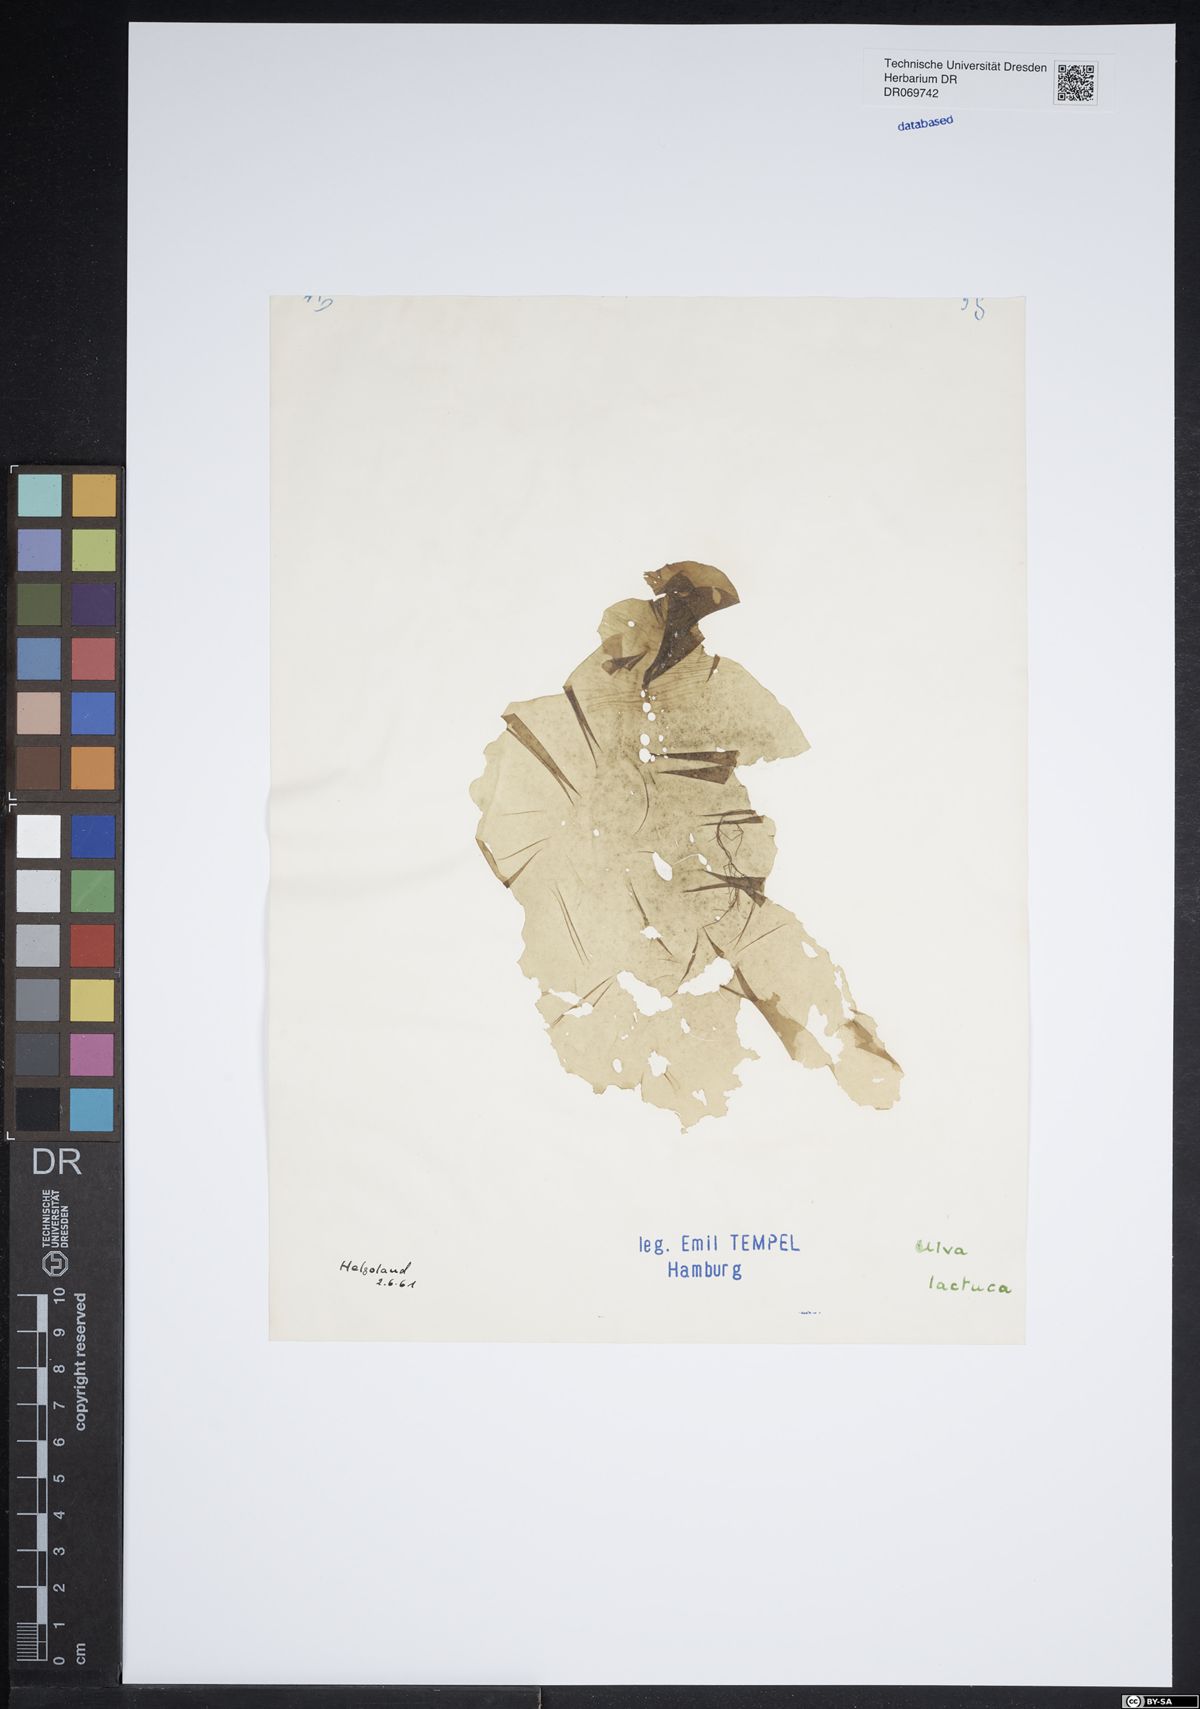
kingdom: Plantae
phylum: Chlorophyta
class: Ulvophyceae
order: Ulvales
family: Ulvaceae
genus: Ulva
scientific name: Ulva lactuca
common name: Sea lettuce
